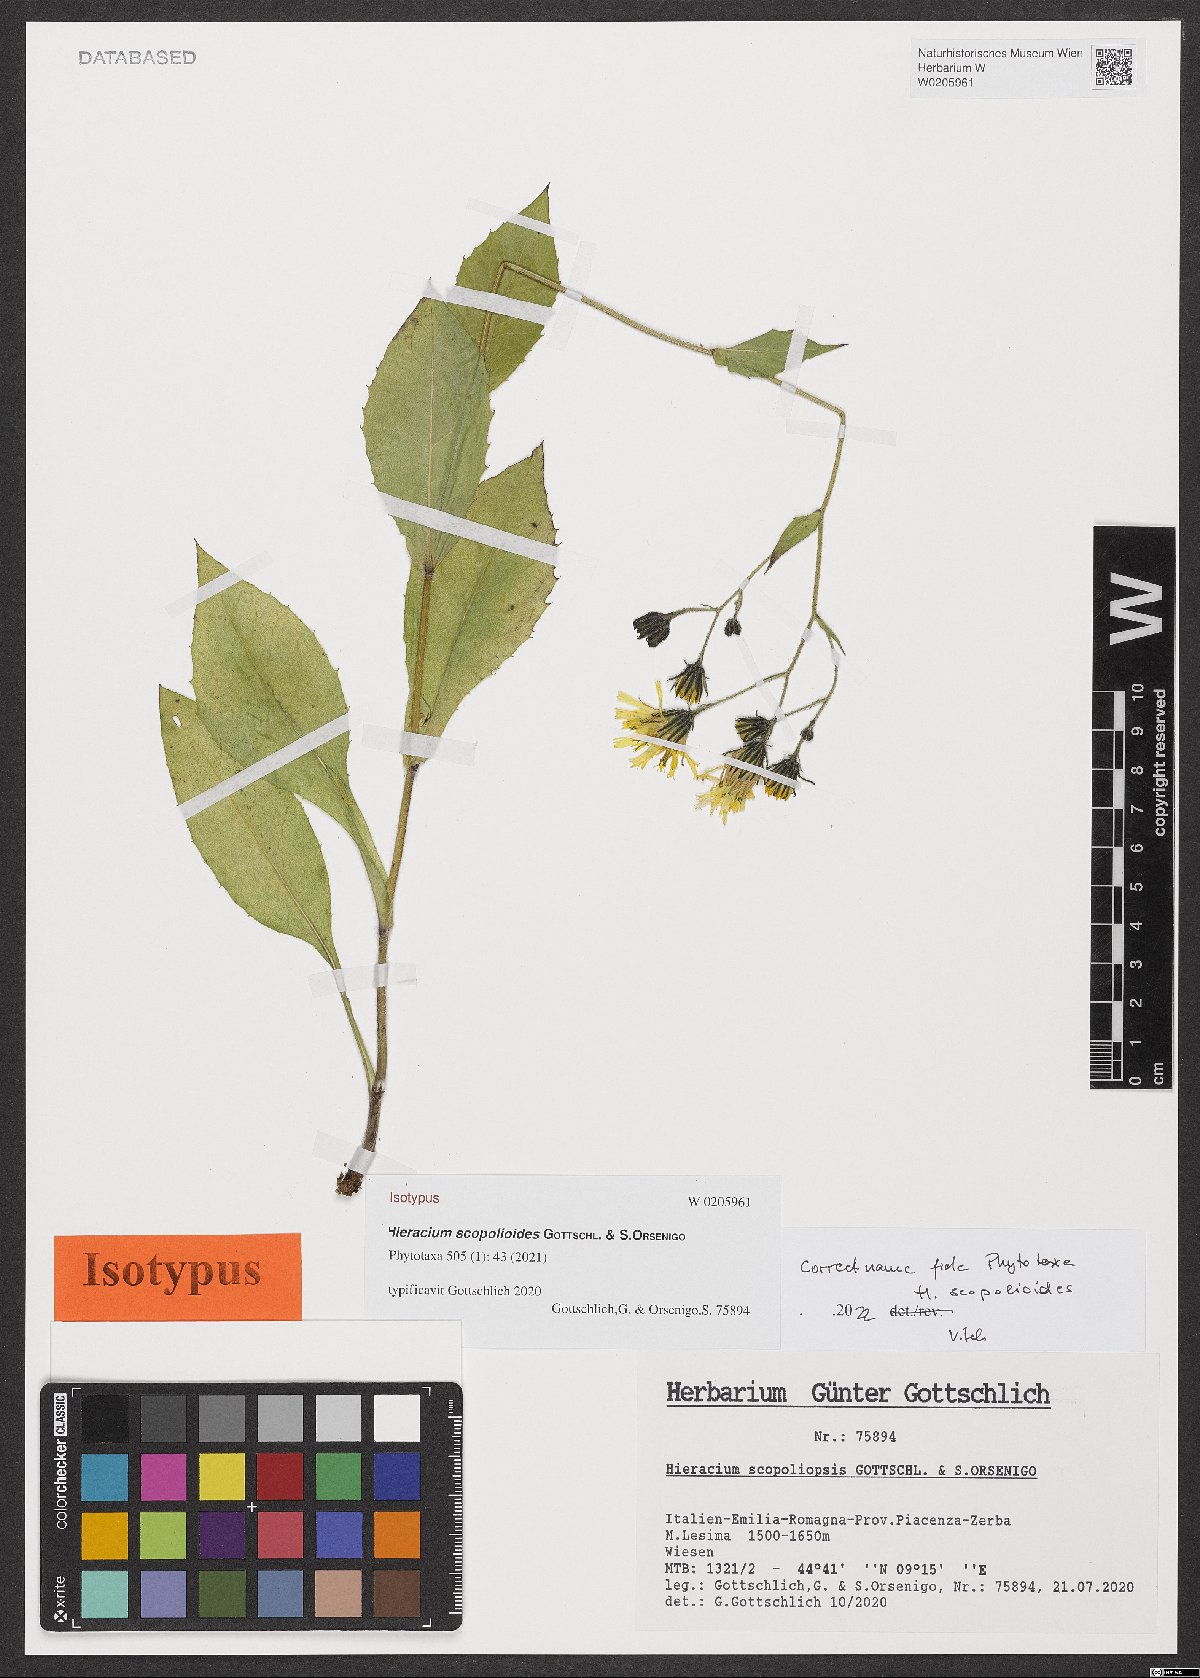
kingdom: Plantae
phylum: Tracheophyta
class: Magnoliopsida
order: Asterales
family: Asteraceae
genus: Hieracium
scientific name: Hieracium scopolioides
